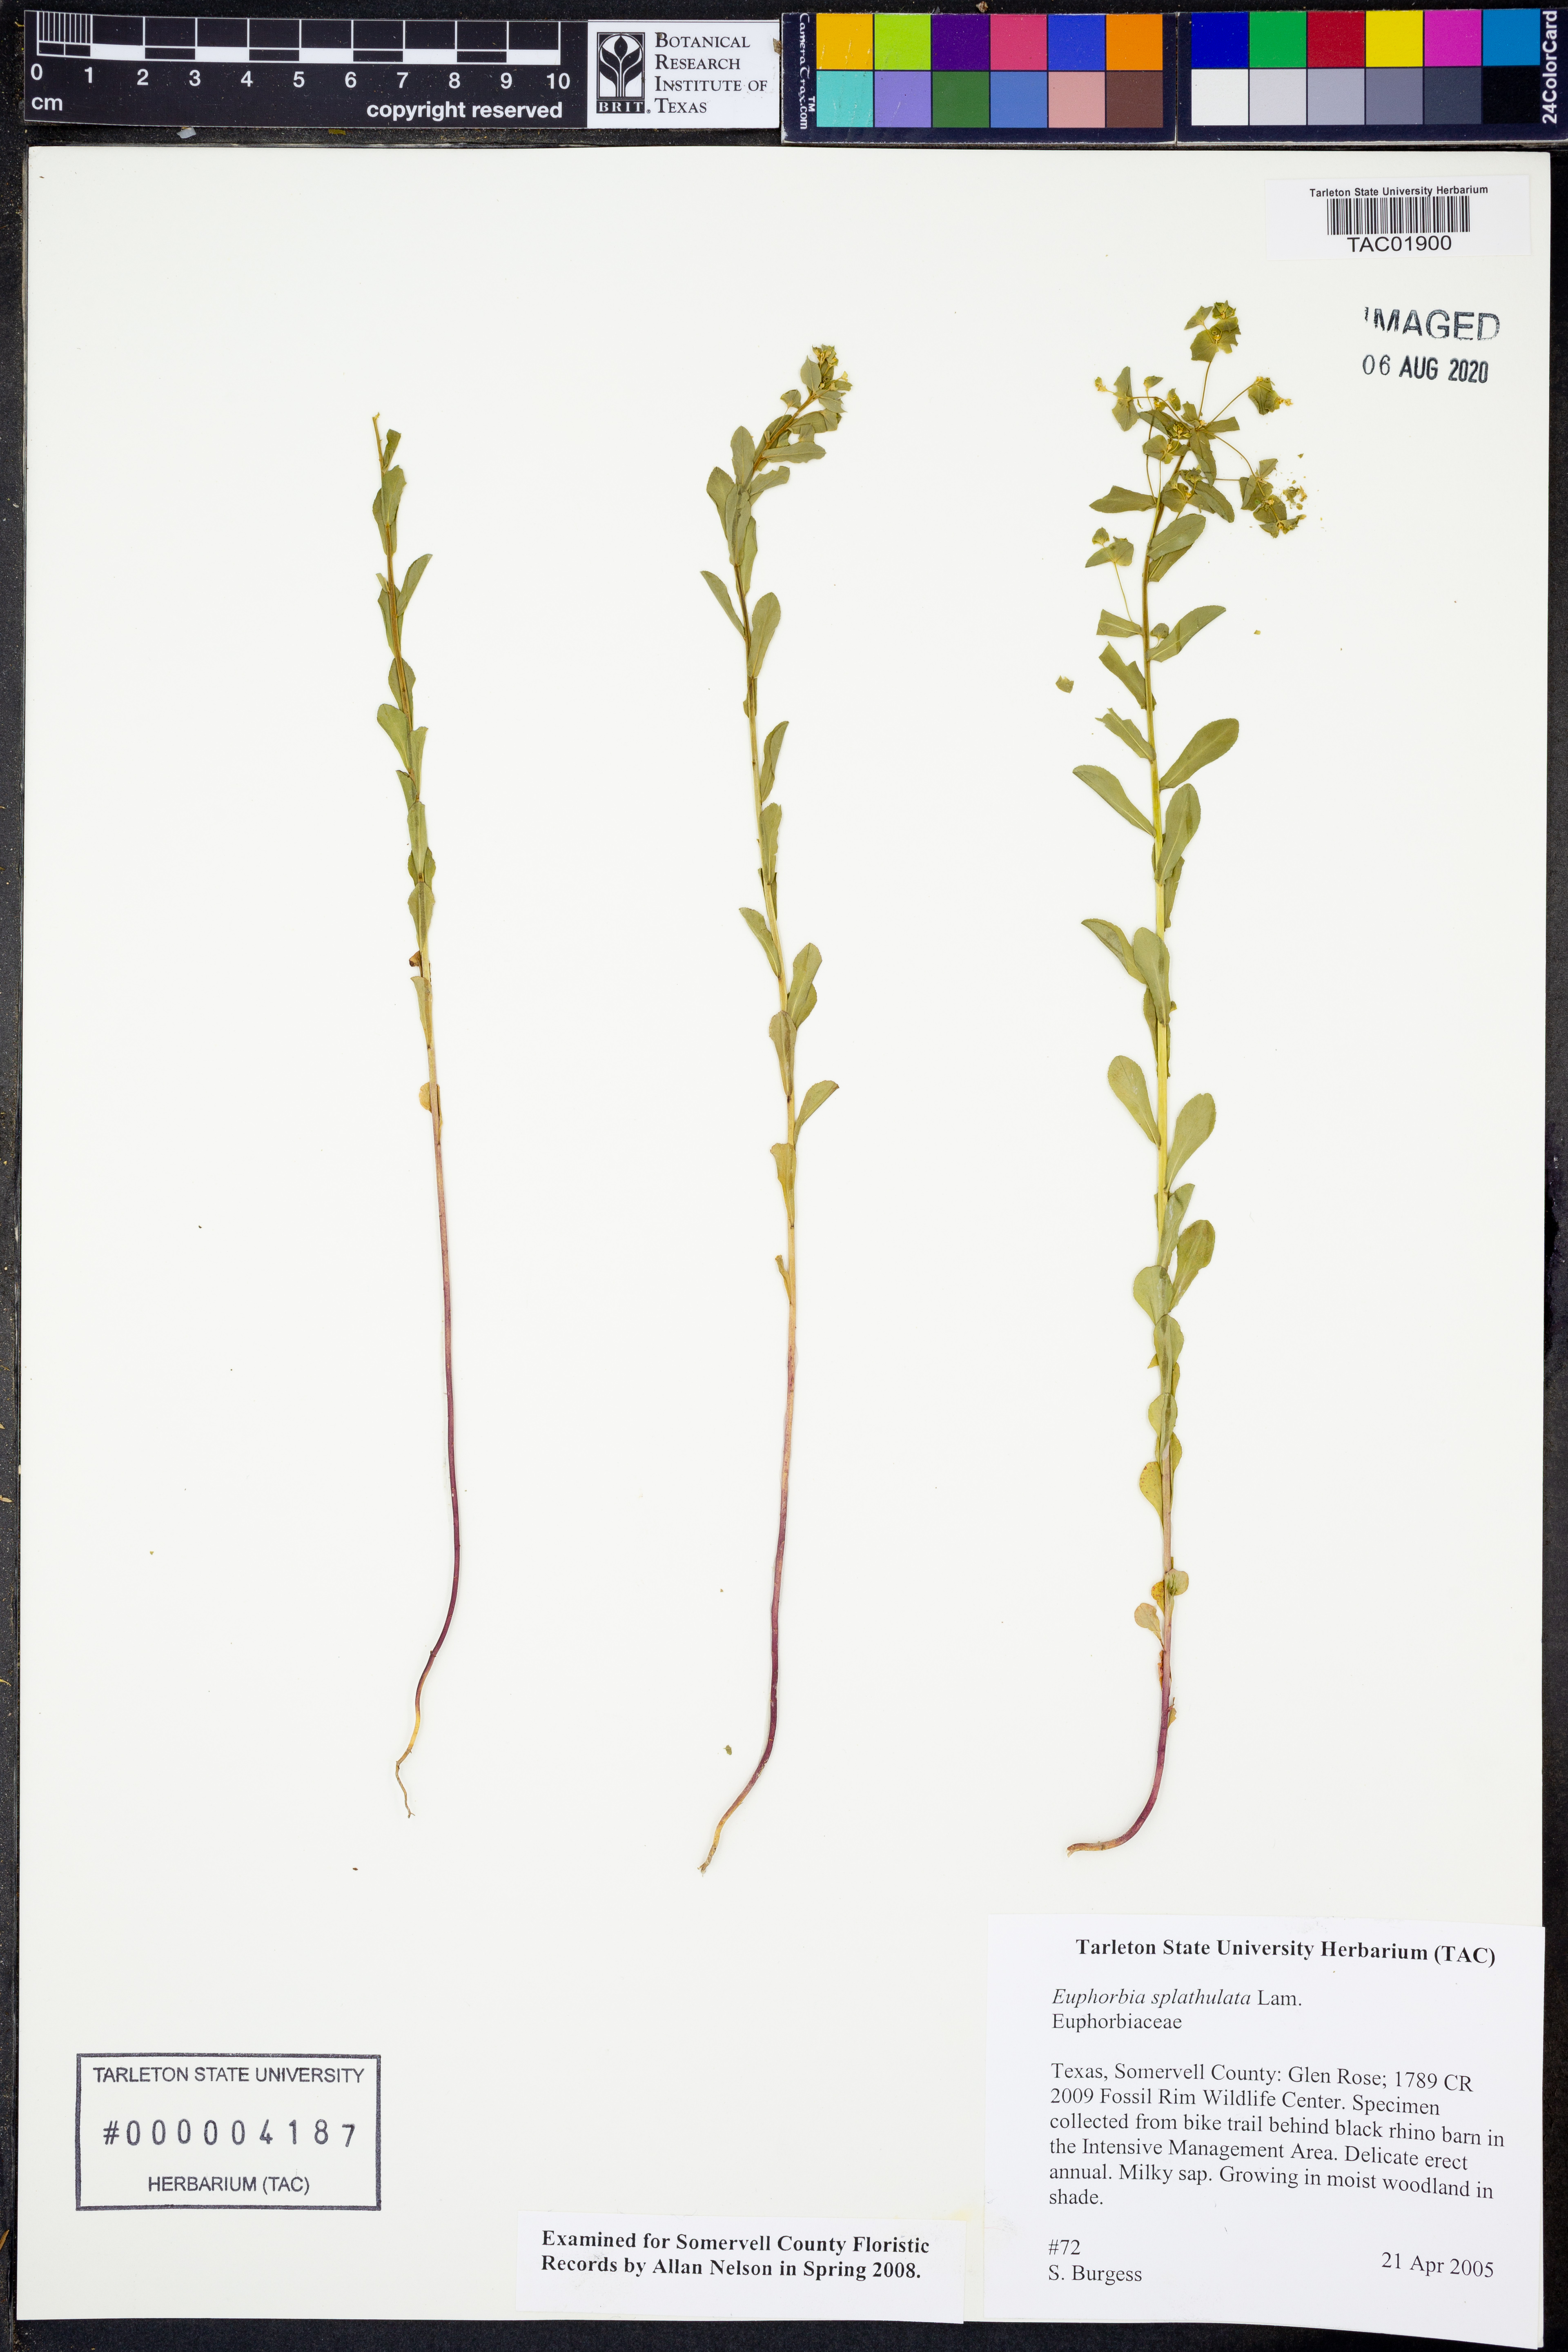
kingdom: Plantae
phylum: Tracheophyta
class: Magnoliopsida
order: Malpighiales
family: Euphorbiaceae
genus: Euphorbia
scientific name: Euphorbia spathulata
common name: Blunt spurge
